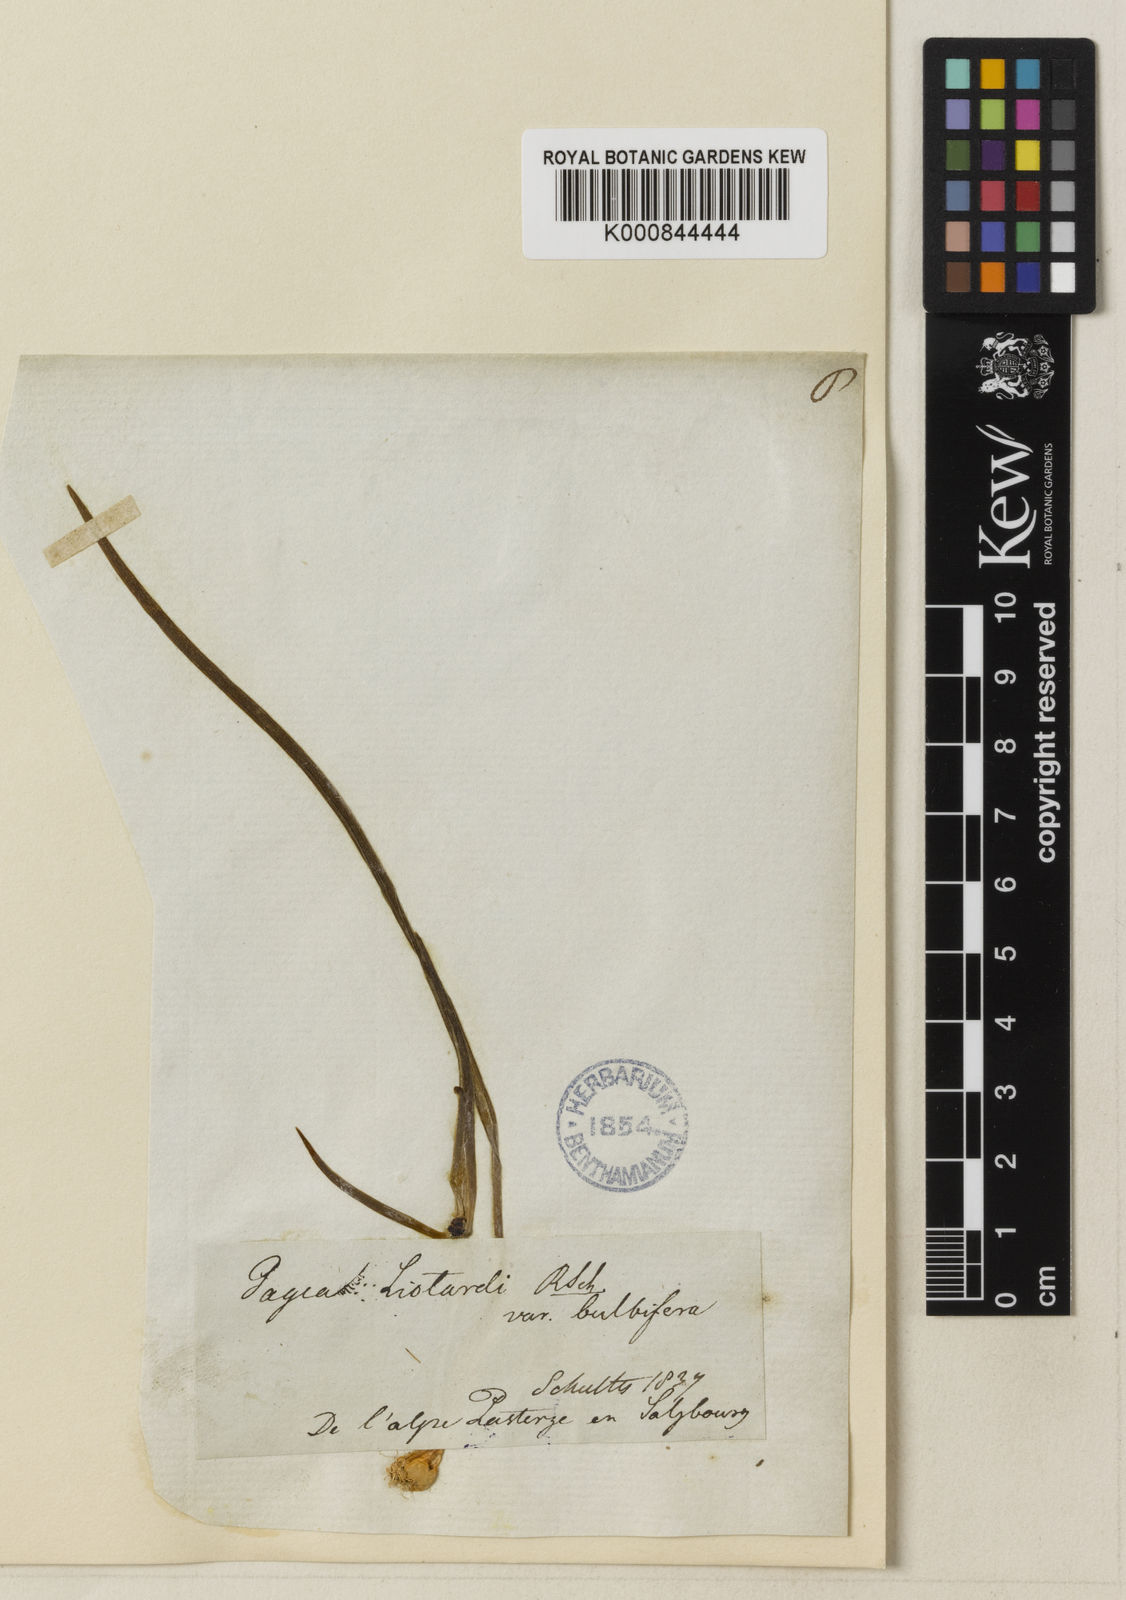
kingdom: Plantae
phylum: Tracheophyta
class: Liliopsida
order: Liliales
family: Liliaceae
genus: Gagea
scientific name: Gagea bohemica
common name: Early star-of-bethlehem
